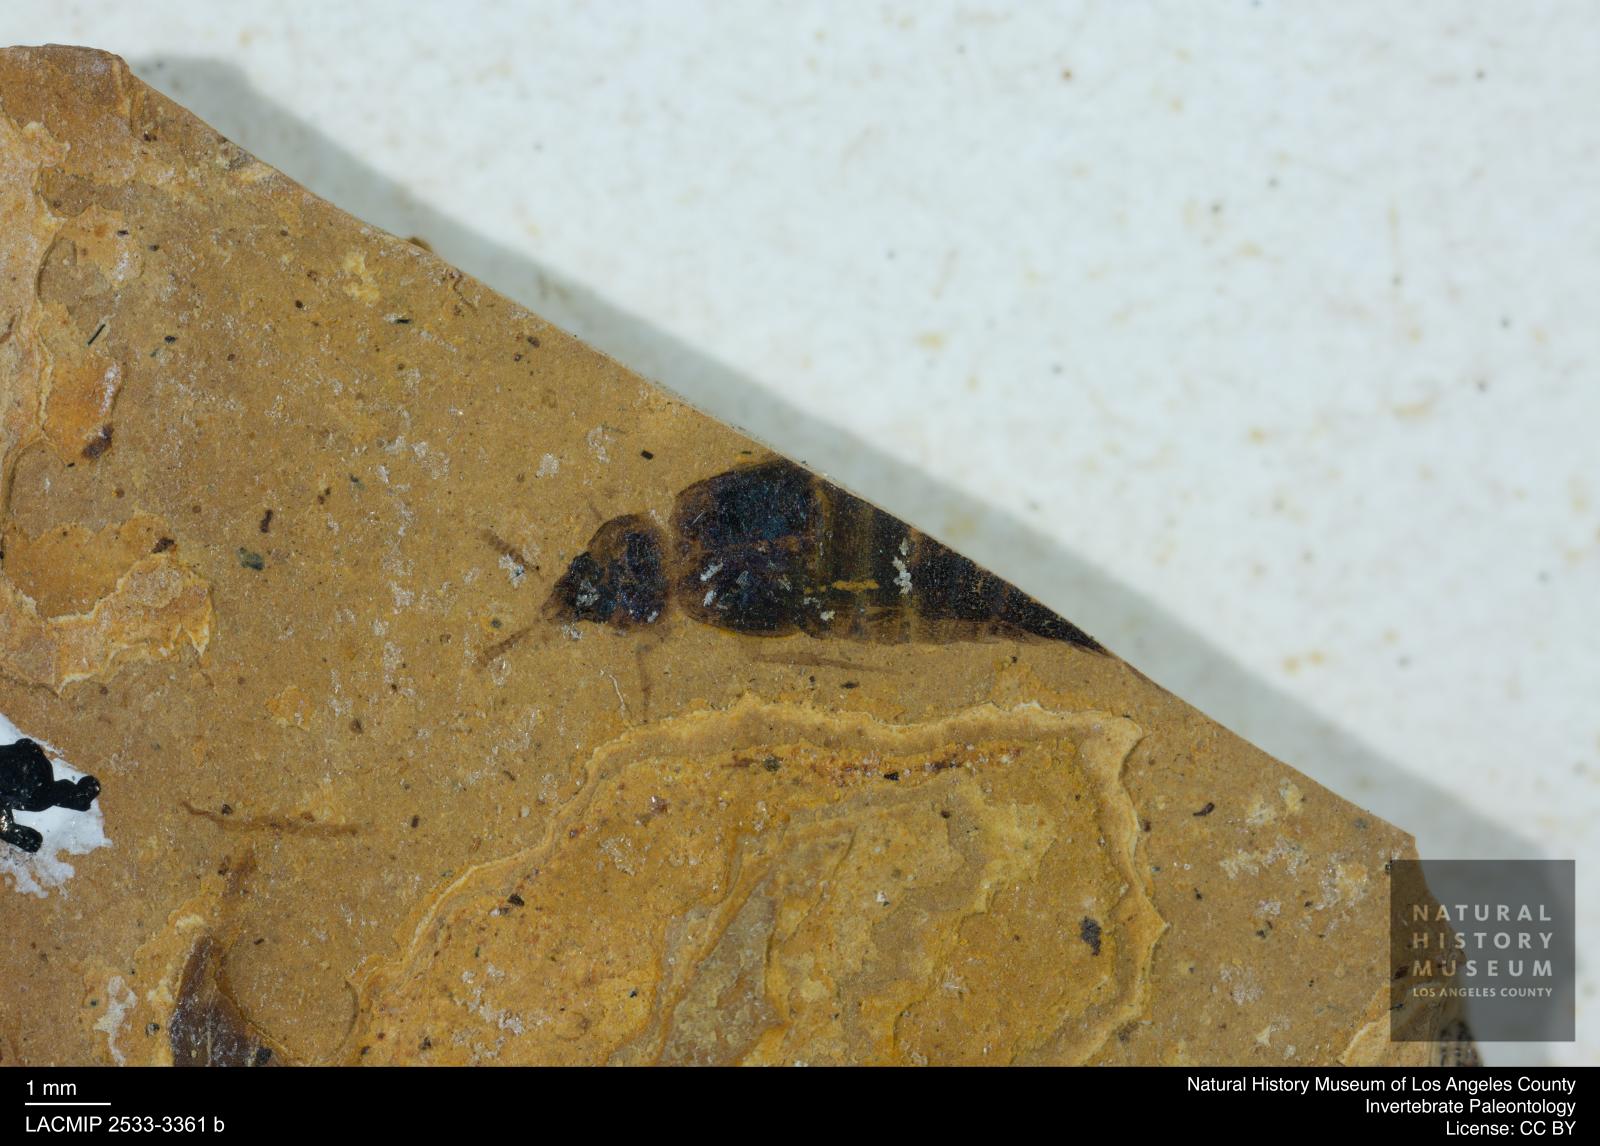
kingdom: Animalia
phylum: Arthropoda
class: Insecta
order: Coleoptera
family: Staphylinidae
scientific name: Staphylinidae
